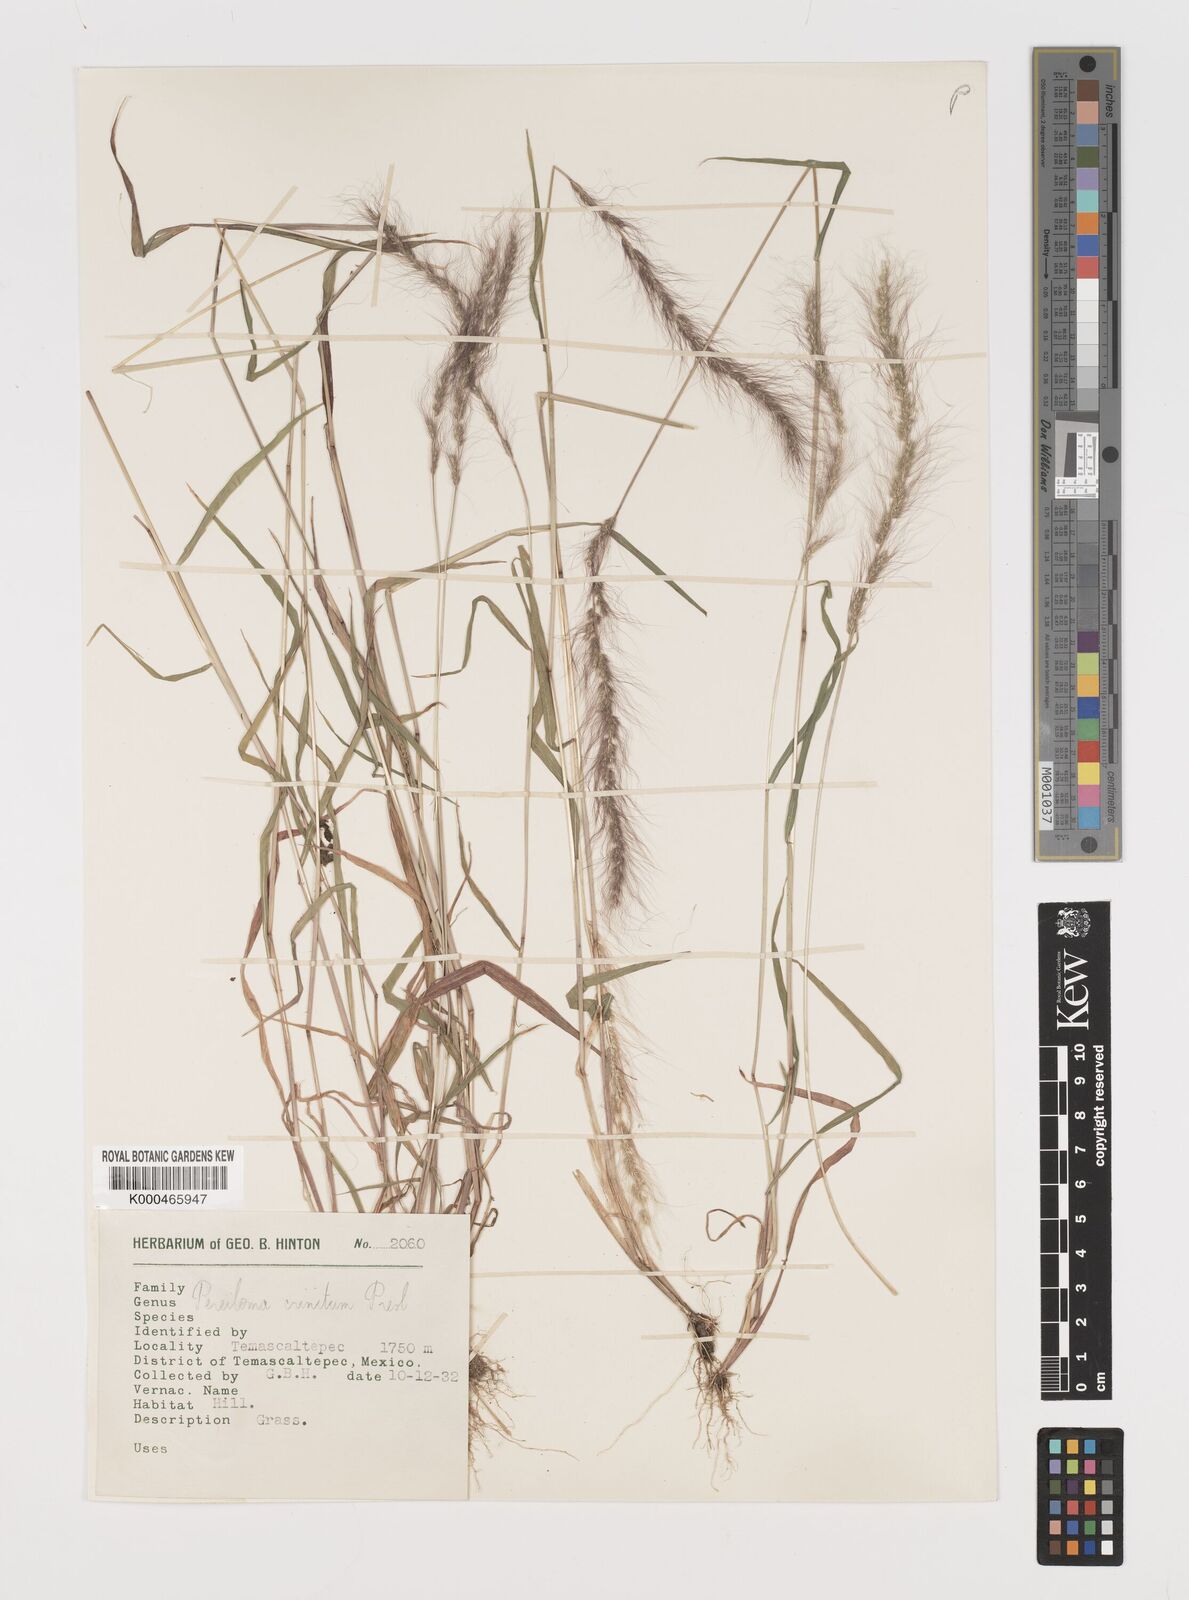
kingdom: Plantae
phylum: Tracheophyta
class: Liliopsida
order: Poales
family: Poaceae
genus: Muhlenbergia
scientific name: Muhlenbergia pereilema
